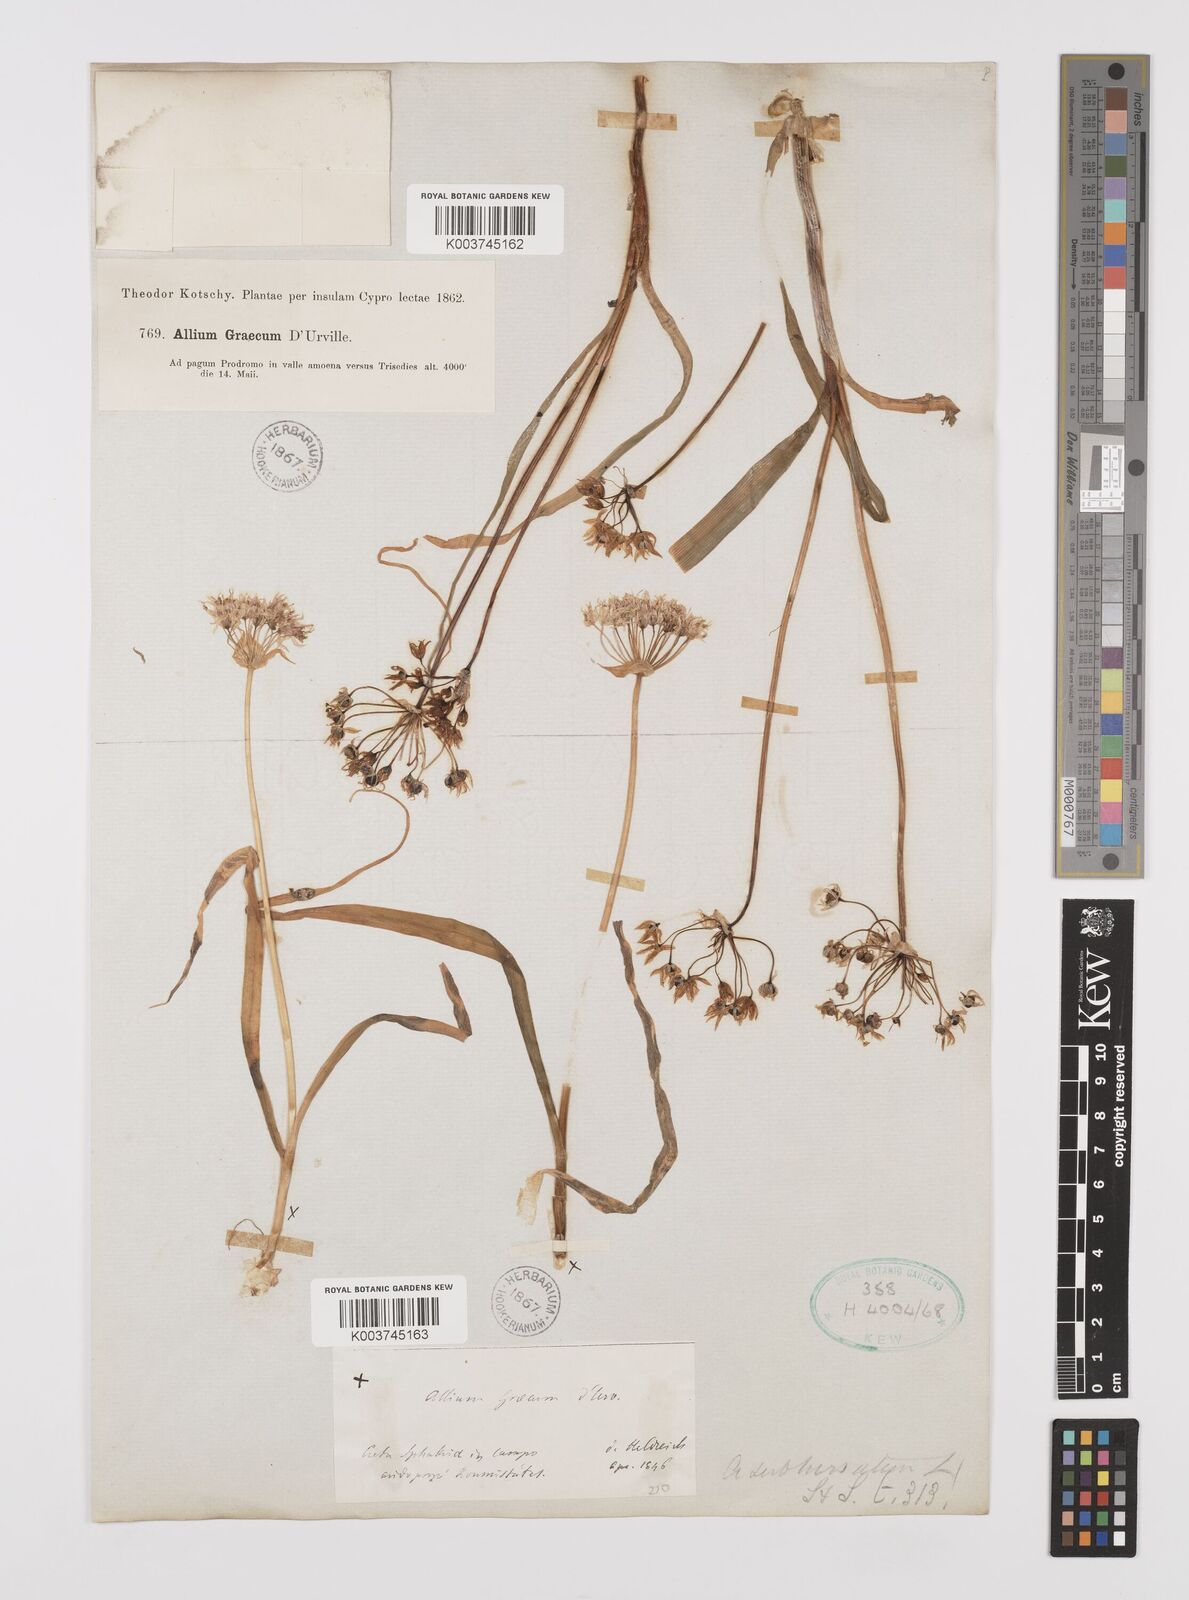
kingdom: Plantae
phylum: Tracheophyta
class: Liliopsida
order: Asparagales
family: Amaryllidaceae
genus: Allium
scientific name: Allium subhirsutum
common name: Hairy garlic
